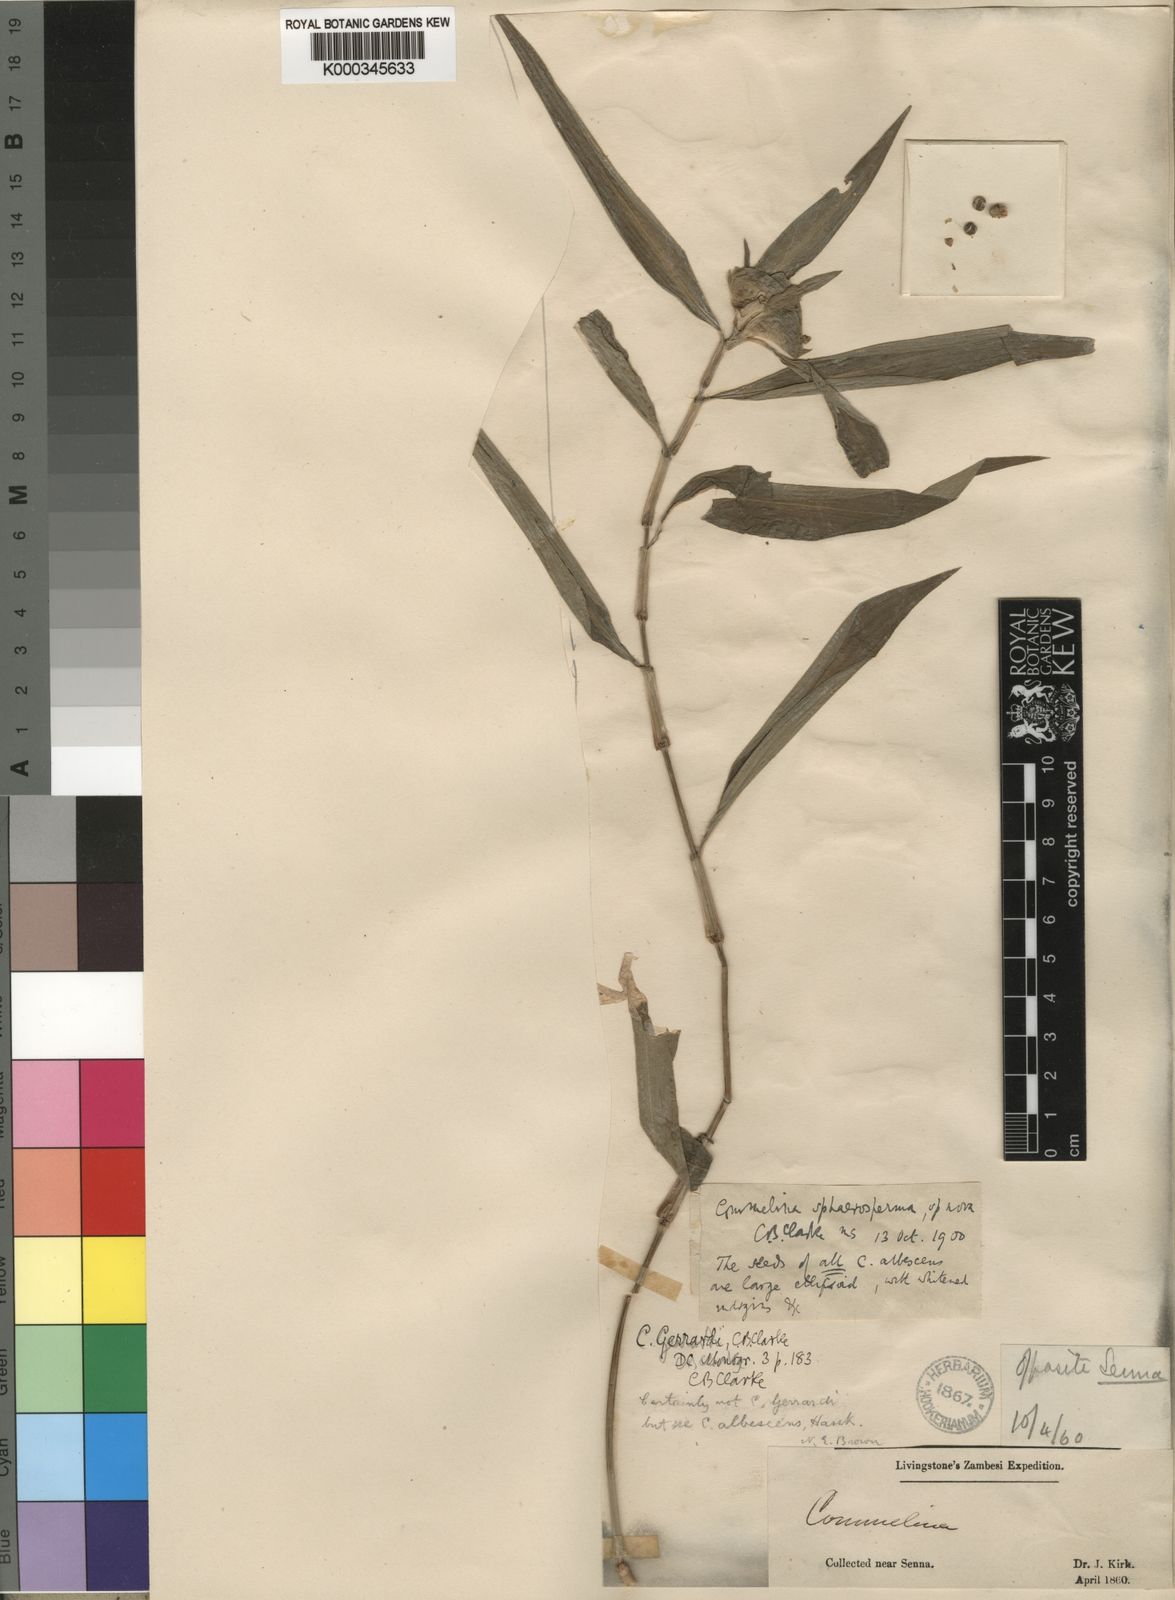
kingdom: Plantae
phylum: Tracheophyta
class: Liliopsida
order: Commelinales
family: Commelinaceae
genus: Commelina
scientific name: Commelina erecta
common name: Blousel blommetjie
